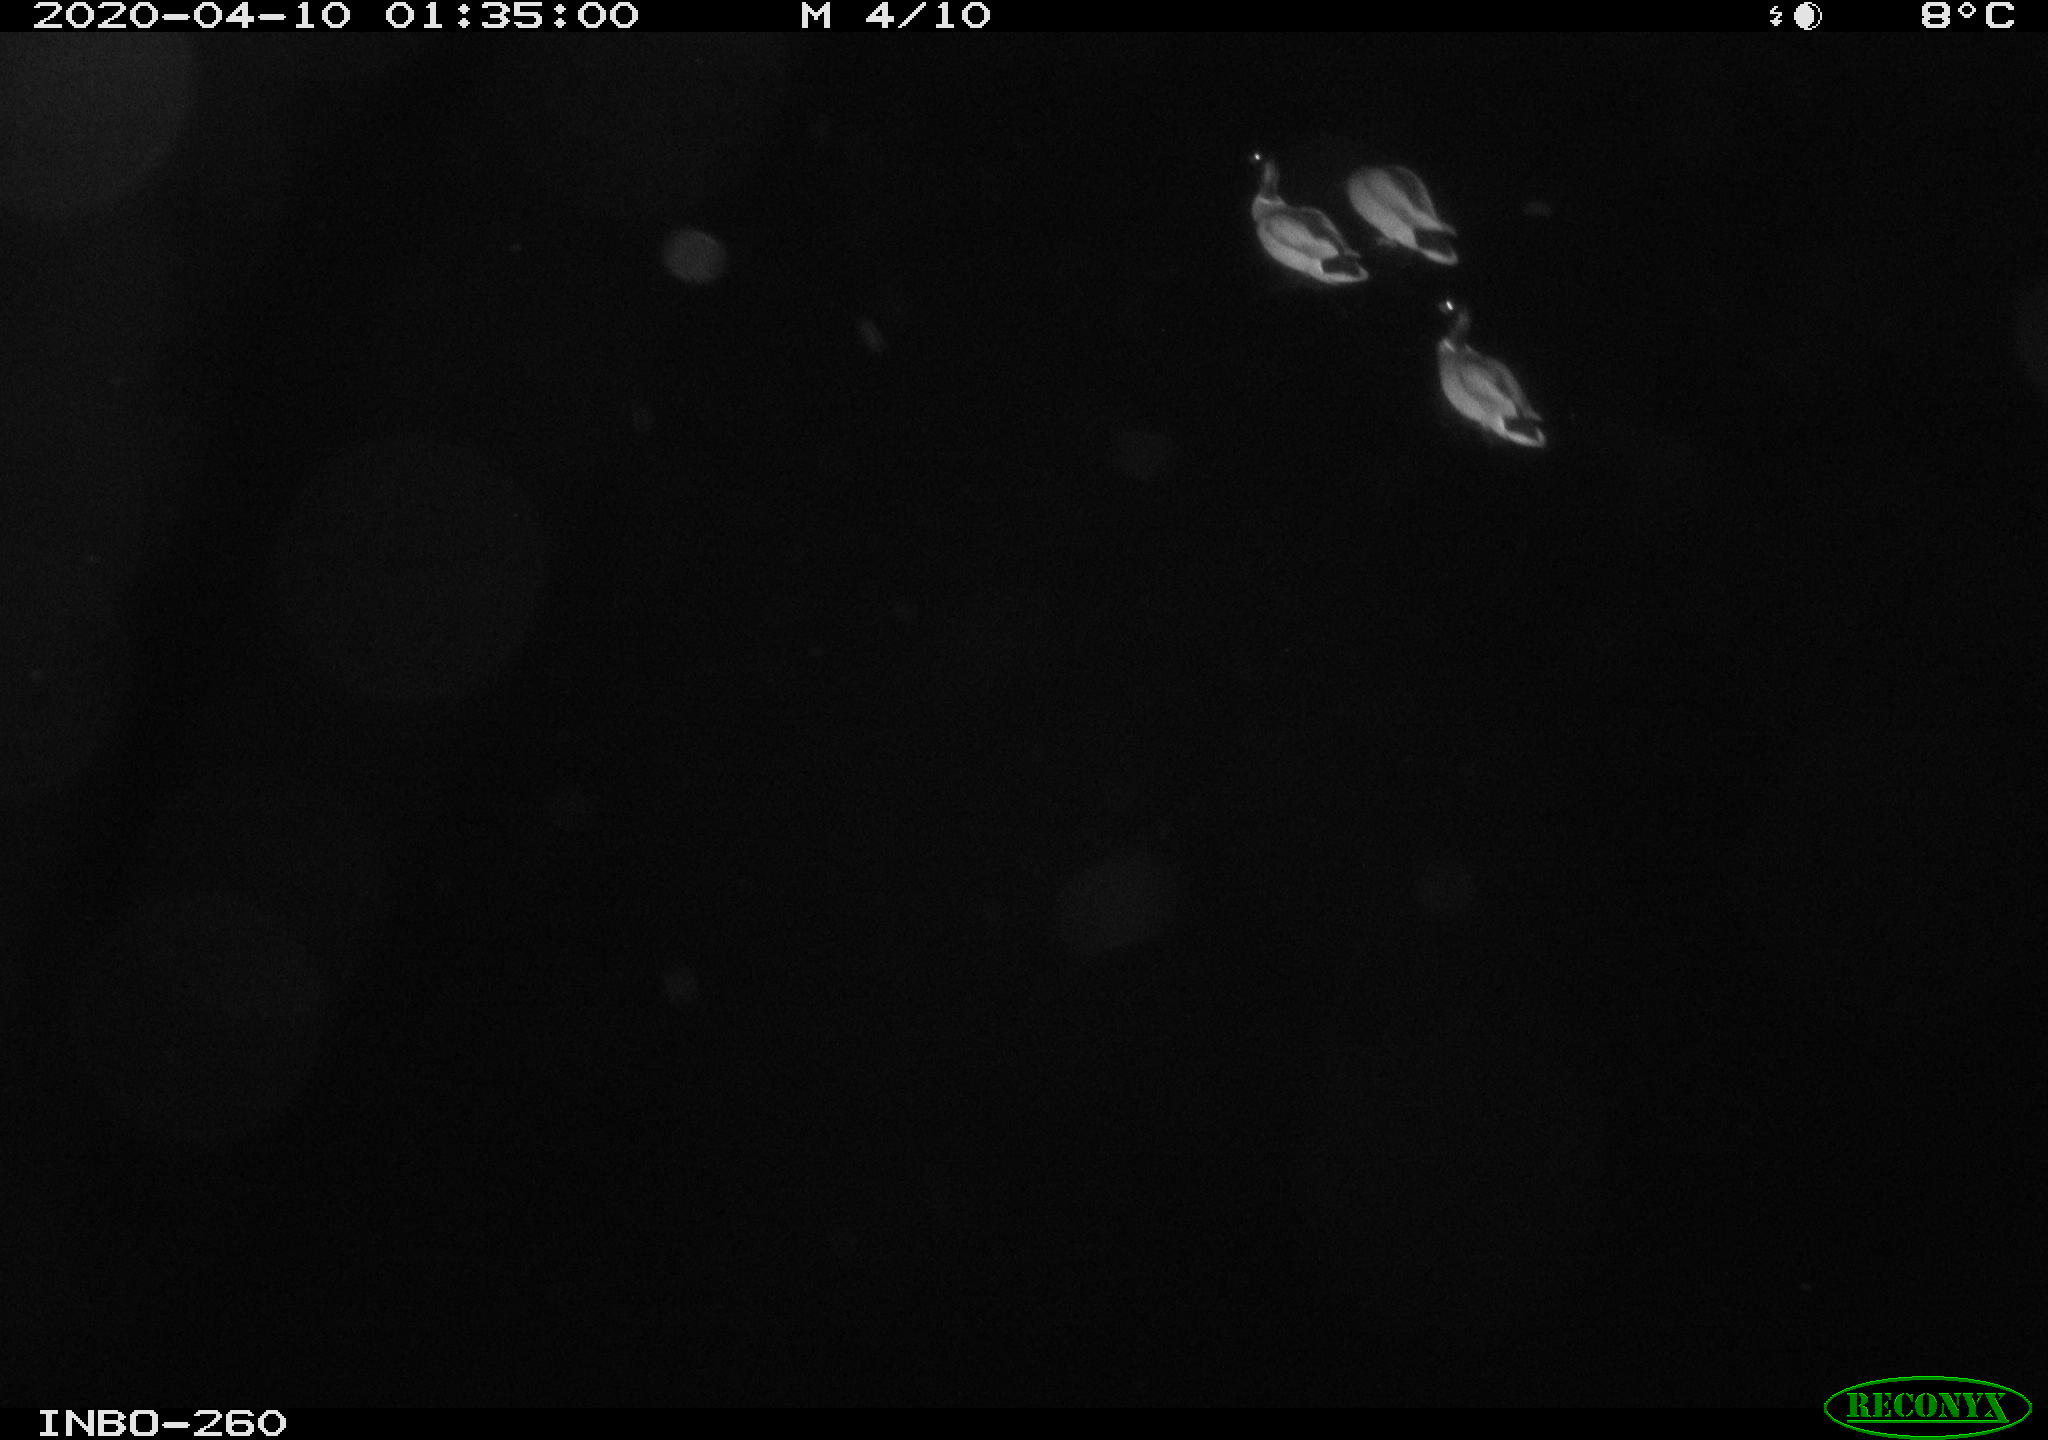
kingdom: Animalia
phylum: Chordata
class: Aves
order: Anseriformes
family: Anatidae
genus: Anas
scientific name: Anas platyrhynchos
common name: Mallard
